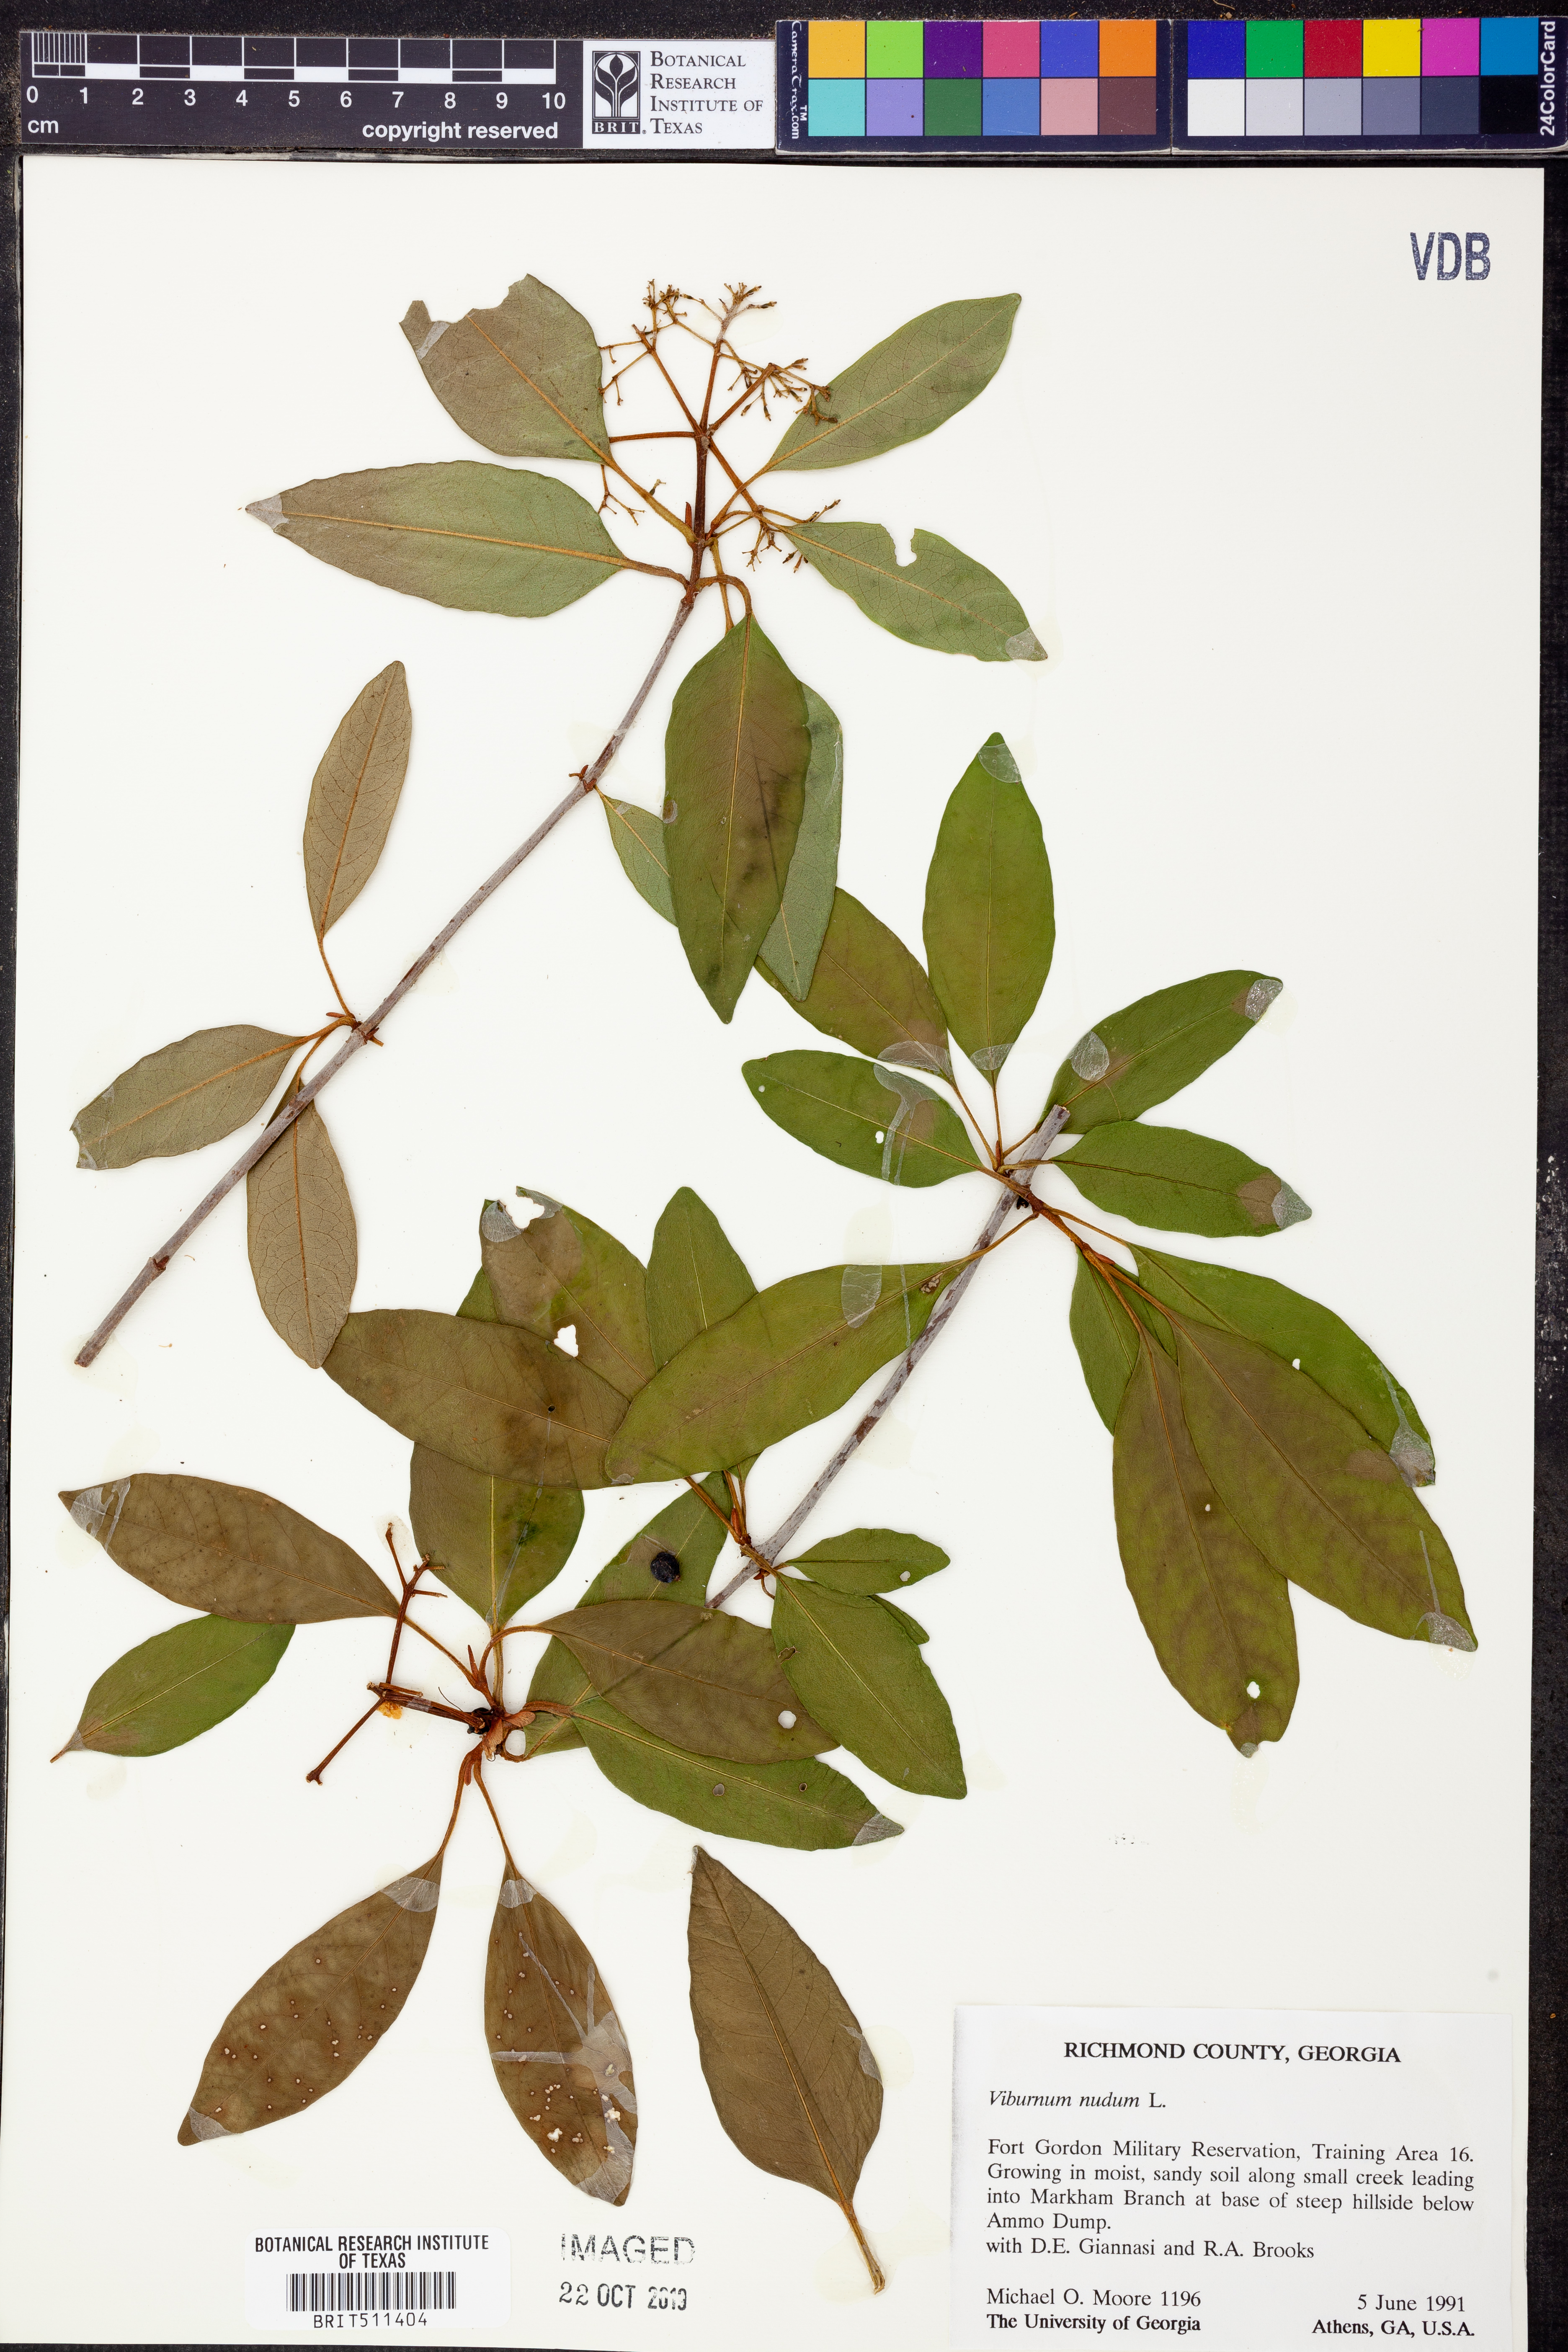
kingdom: Plantae
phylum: Tracheophyta
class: Magnoliopsida
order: Dipsacales
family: Viburnaceae
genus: Viburnum
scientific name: Viburnum nudum
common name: Possum haw
